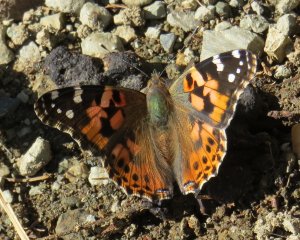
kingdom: Animalia
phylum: Arthropoda
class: Insecta
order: Lepidoptera
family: Nymphalidae
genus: Vanessa
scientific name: Vanessa cardui
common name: Painted Lady
